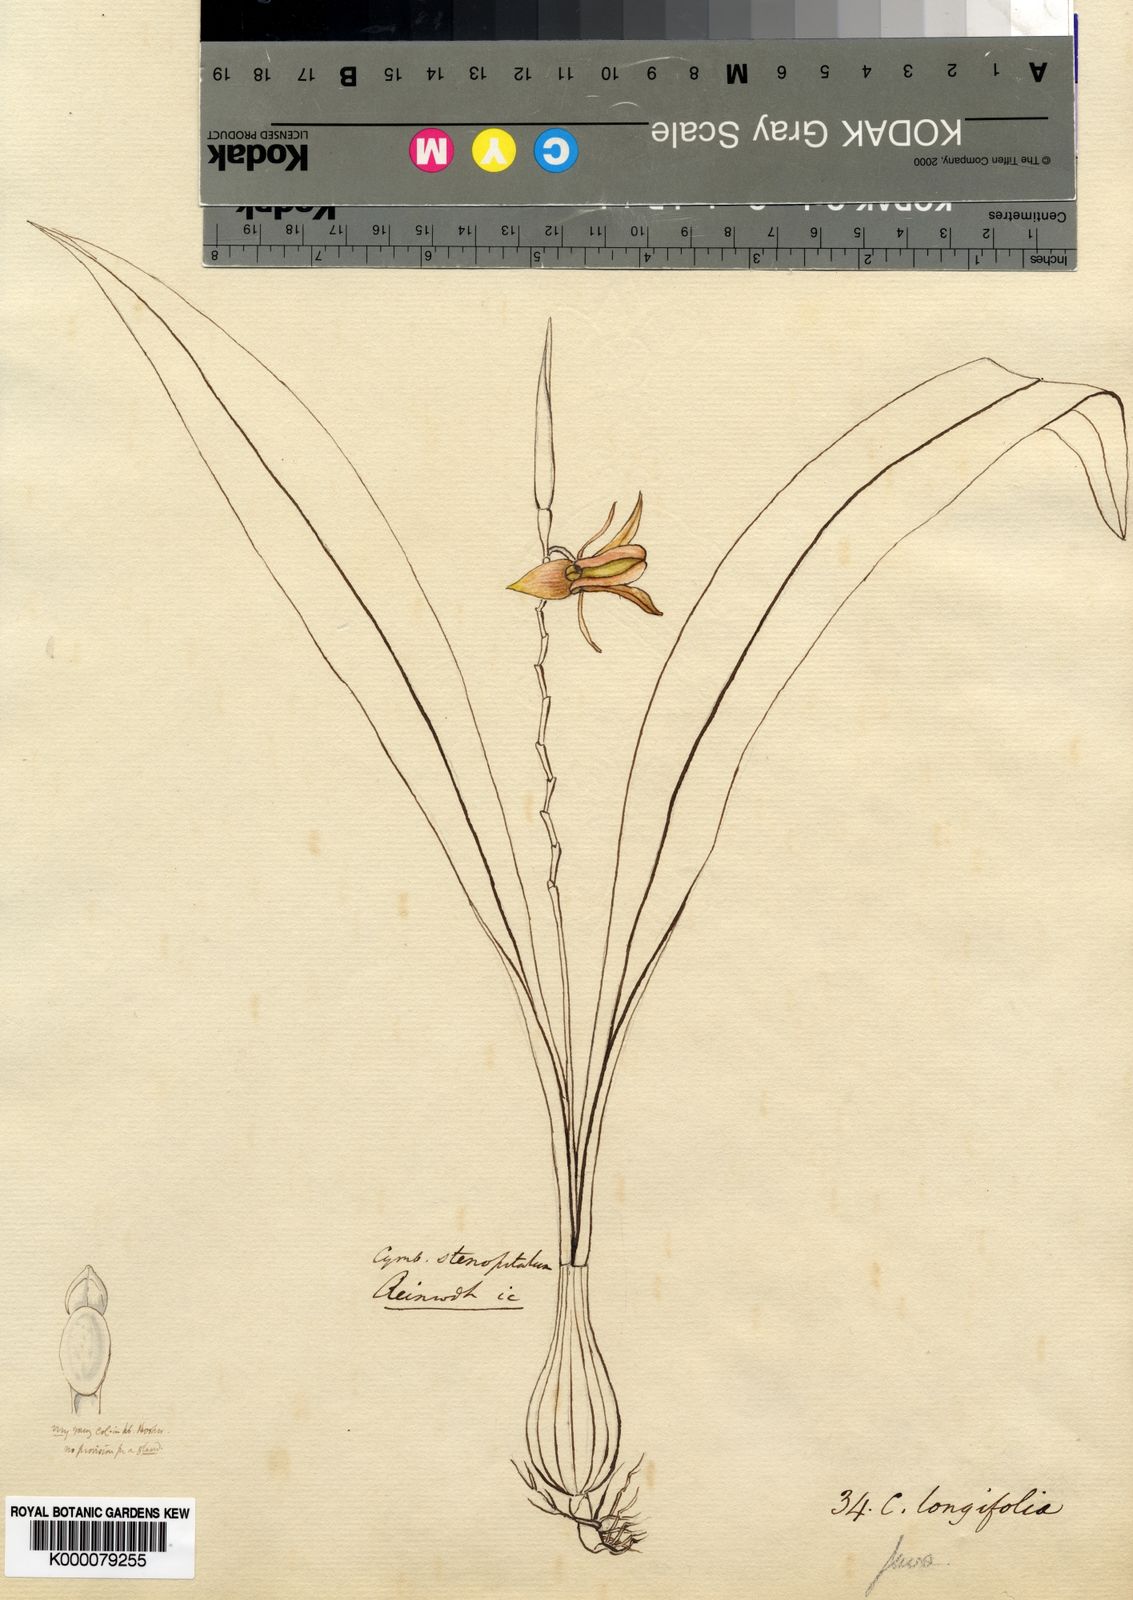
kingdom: Plantae
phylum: Tracheophyta
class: Liliopsida
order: Asparagales
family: Orchidaceae
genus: Coelogyne
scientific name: Coelogyne longifolia
